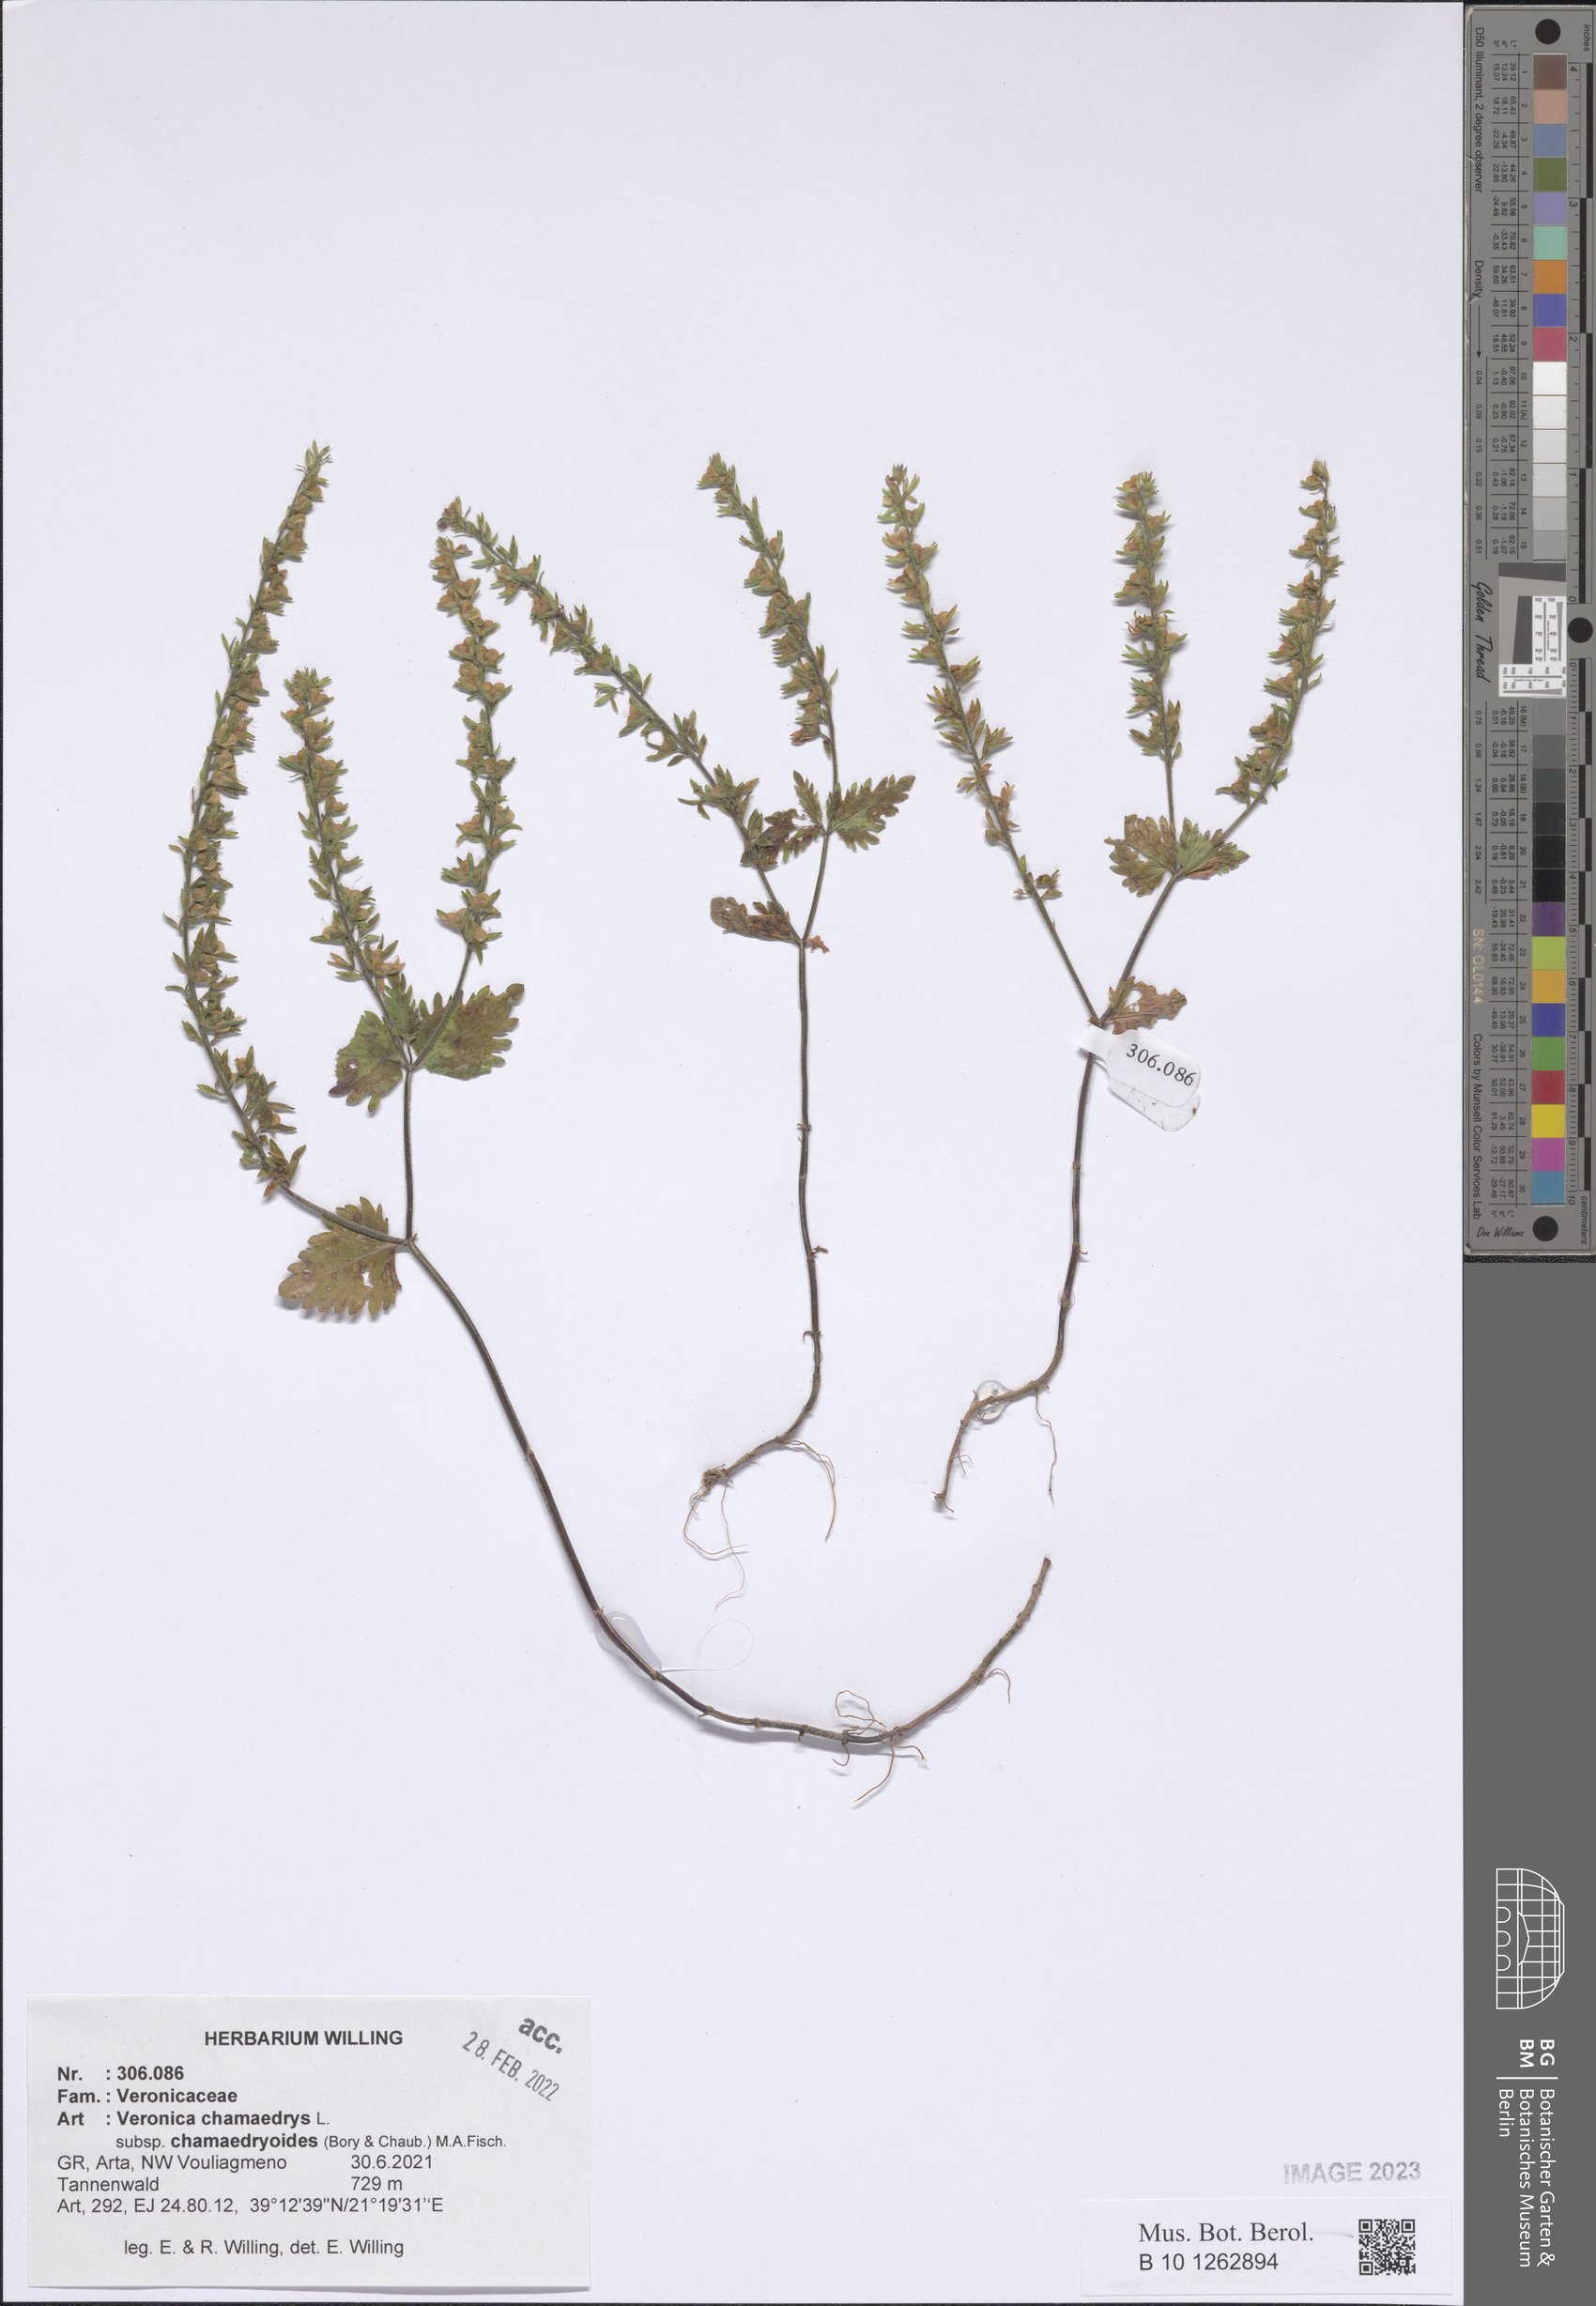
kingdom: Plantae
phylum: Tracheophyta
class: Magnoliopsida
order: Lamiales
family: Plantaginaceae
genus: Veronica
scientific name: Veronica chamaedrys
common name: Germander speedwell
